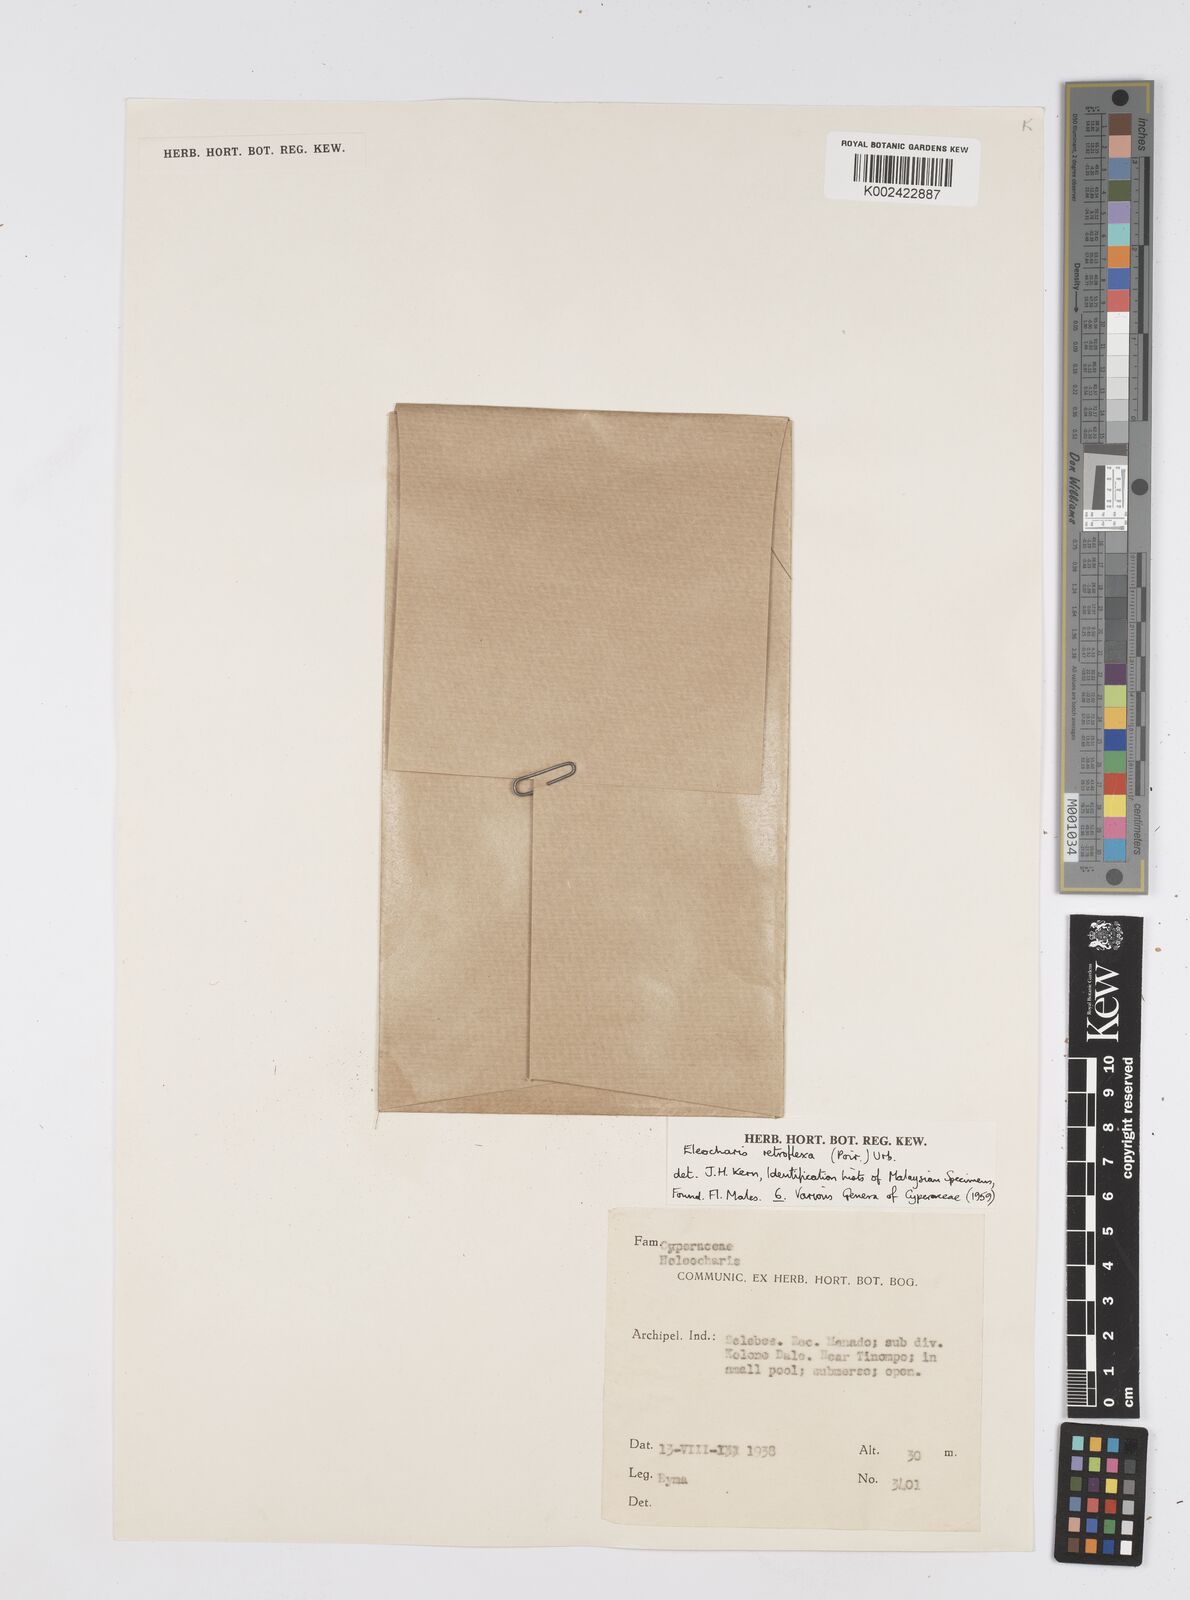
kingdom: Plantae
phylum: Tracheophyta
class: Liliopsida
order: Poales
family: Cyperaceae
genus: Eleocharis
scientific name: Eleocharis retroflexa
